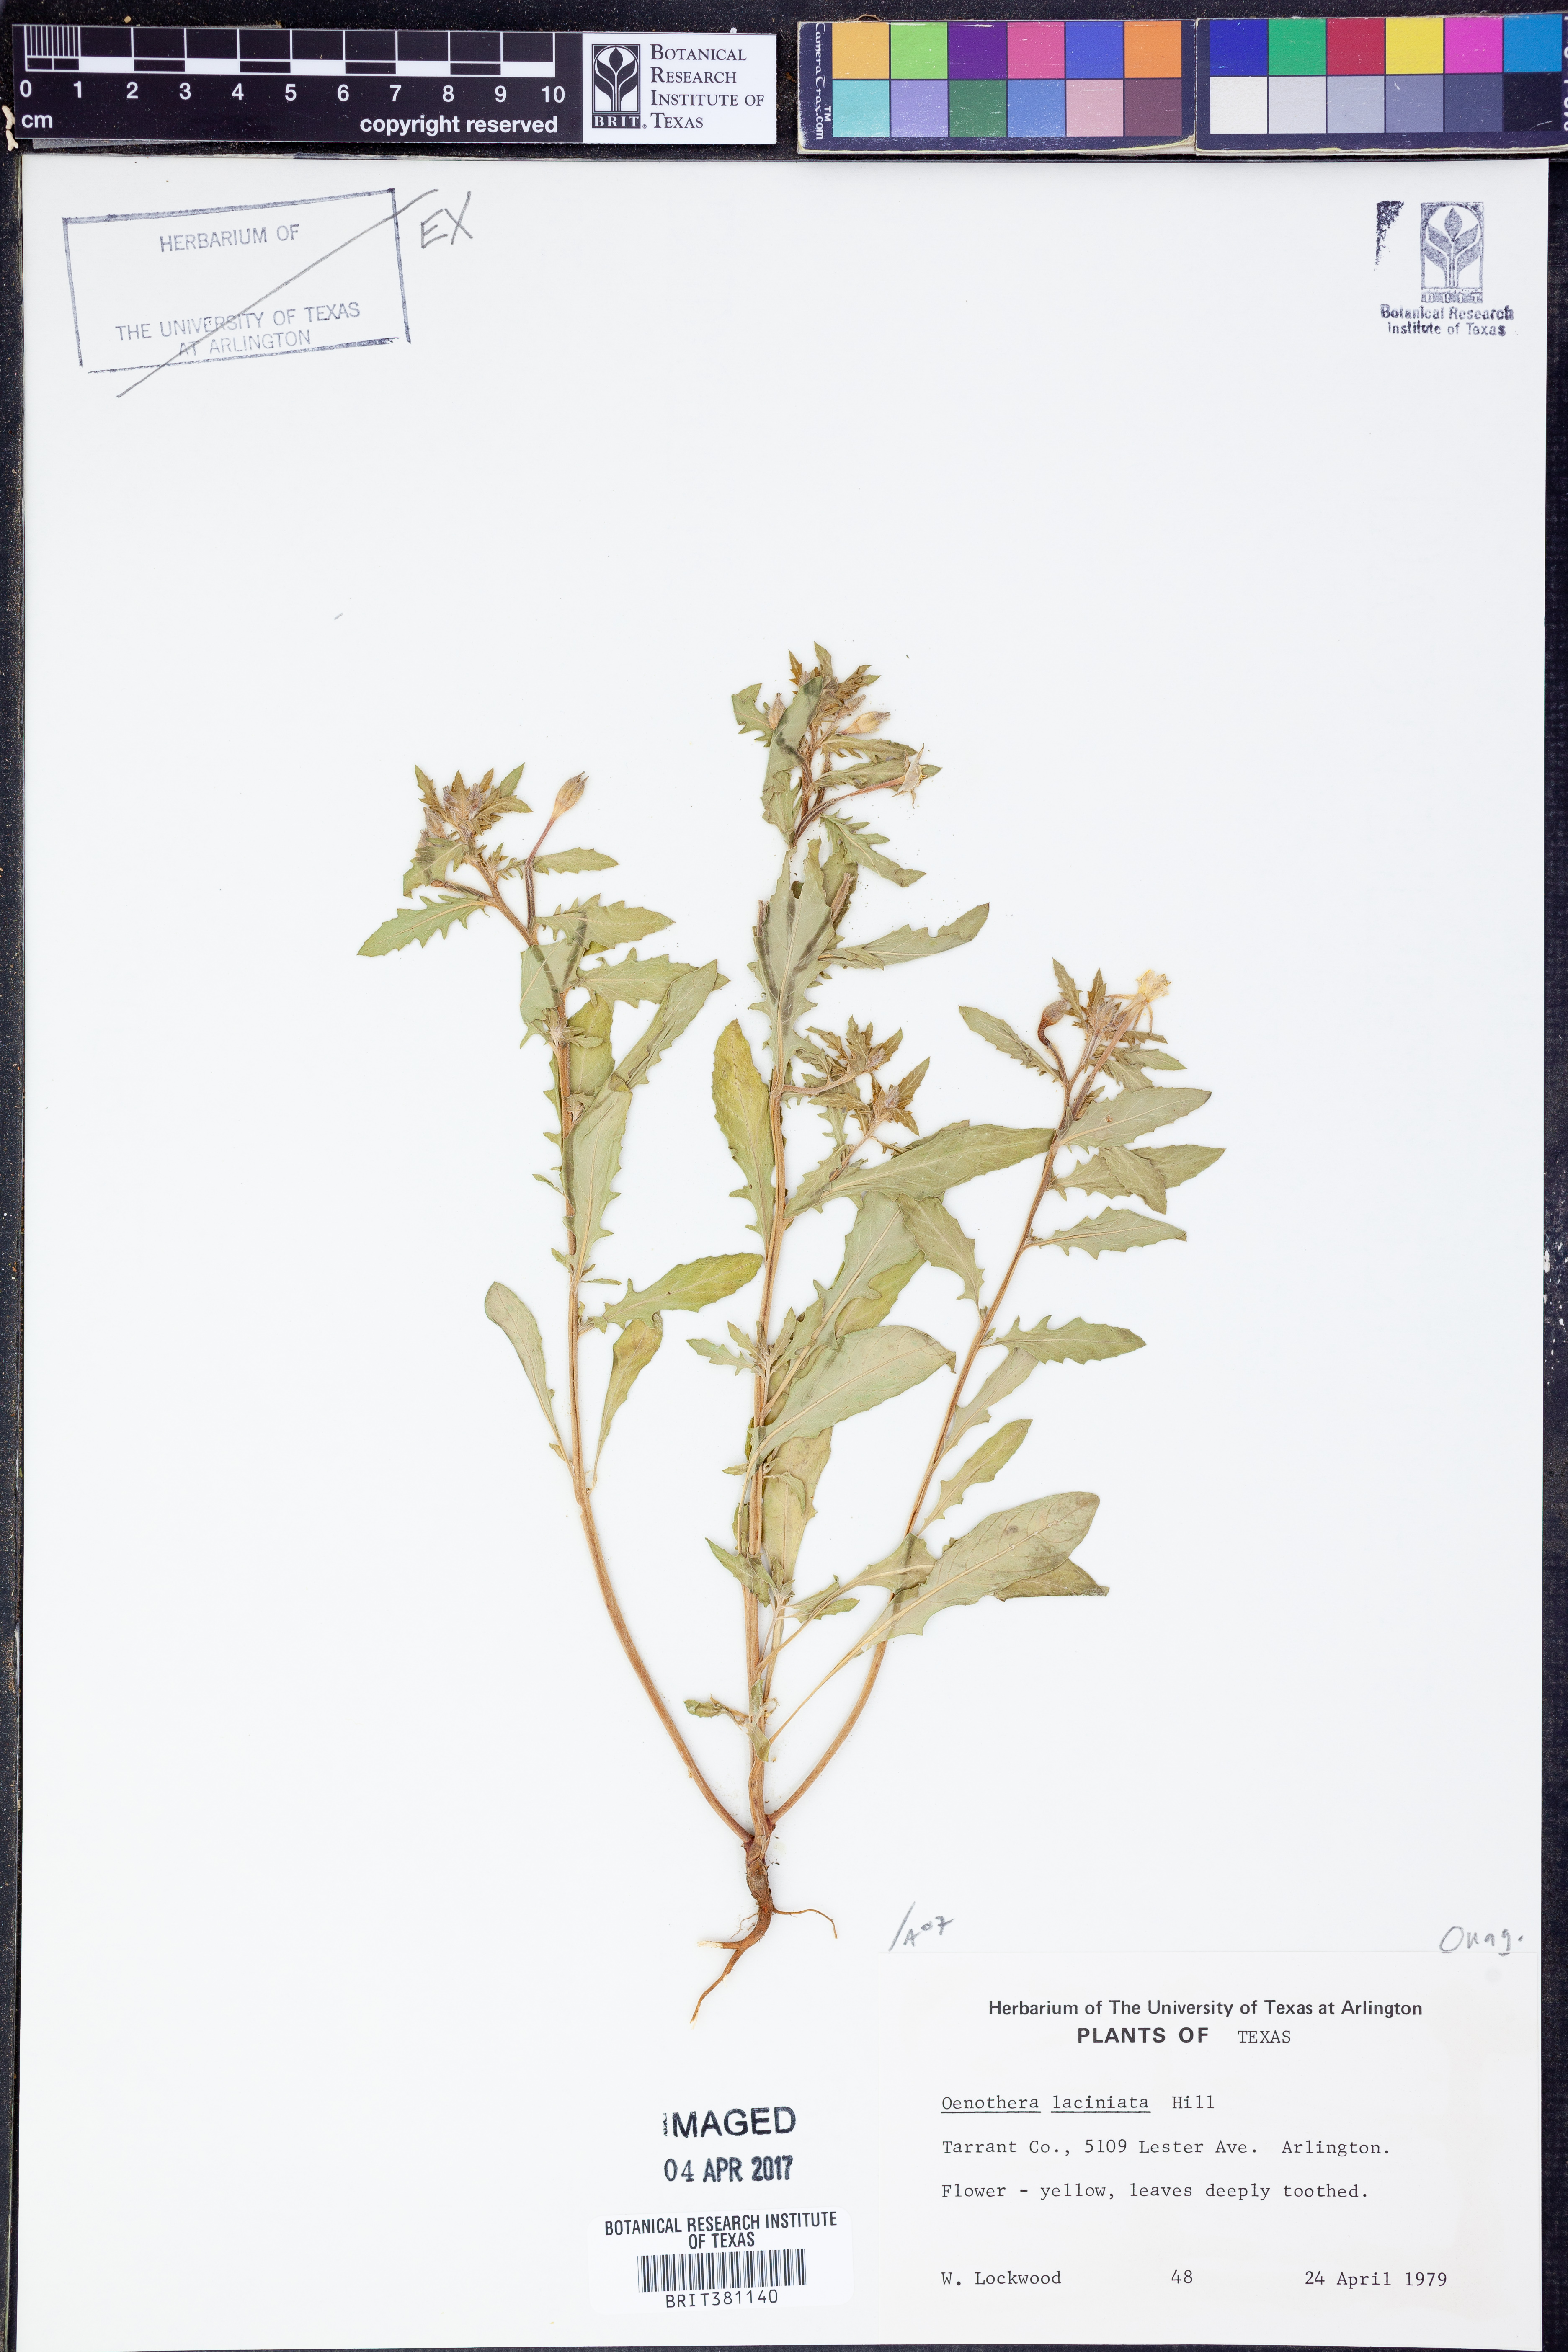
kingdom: Plantae
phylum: Tracheophyta
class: Magnoliopsida
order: Myrtales
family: Onagraceae
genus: Oenothera
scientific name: Oenothera laciniata
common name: Cut-leaved evening-primrose
